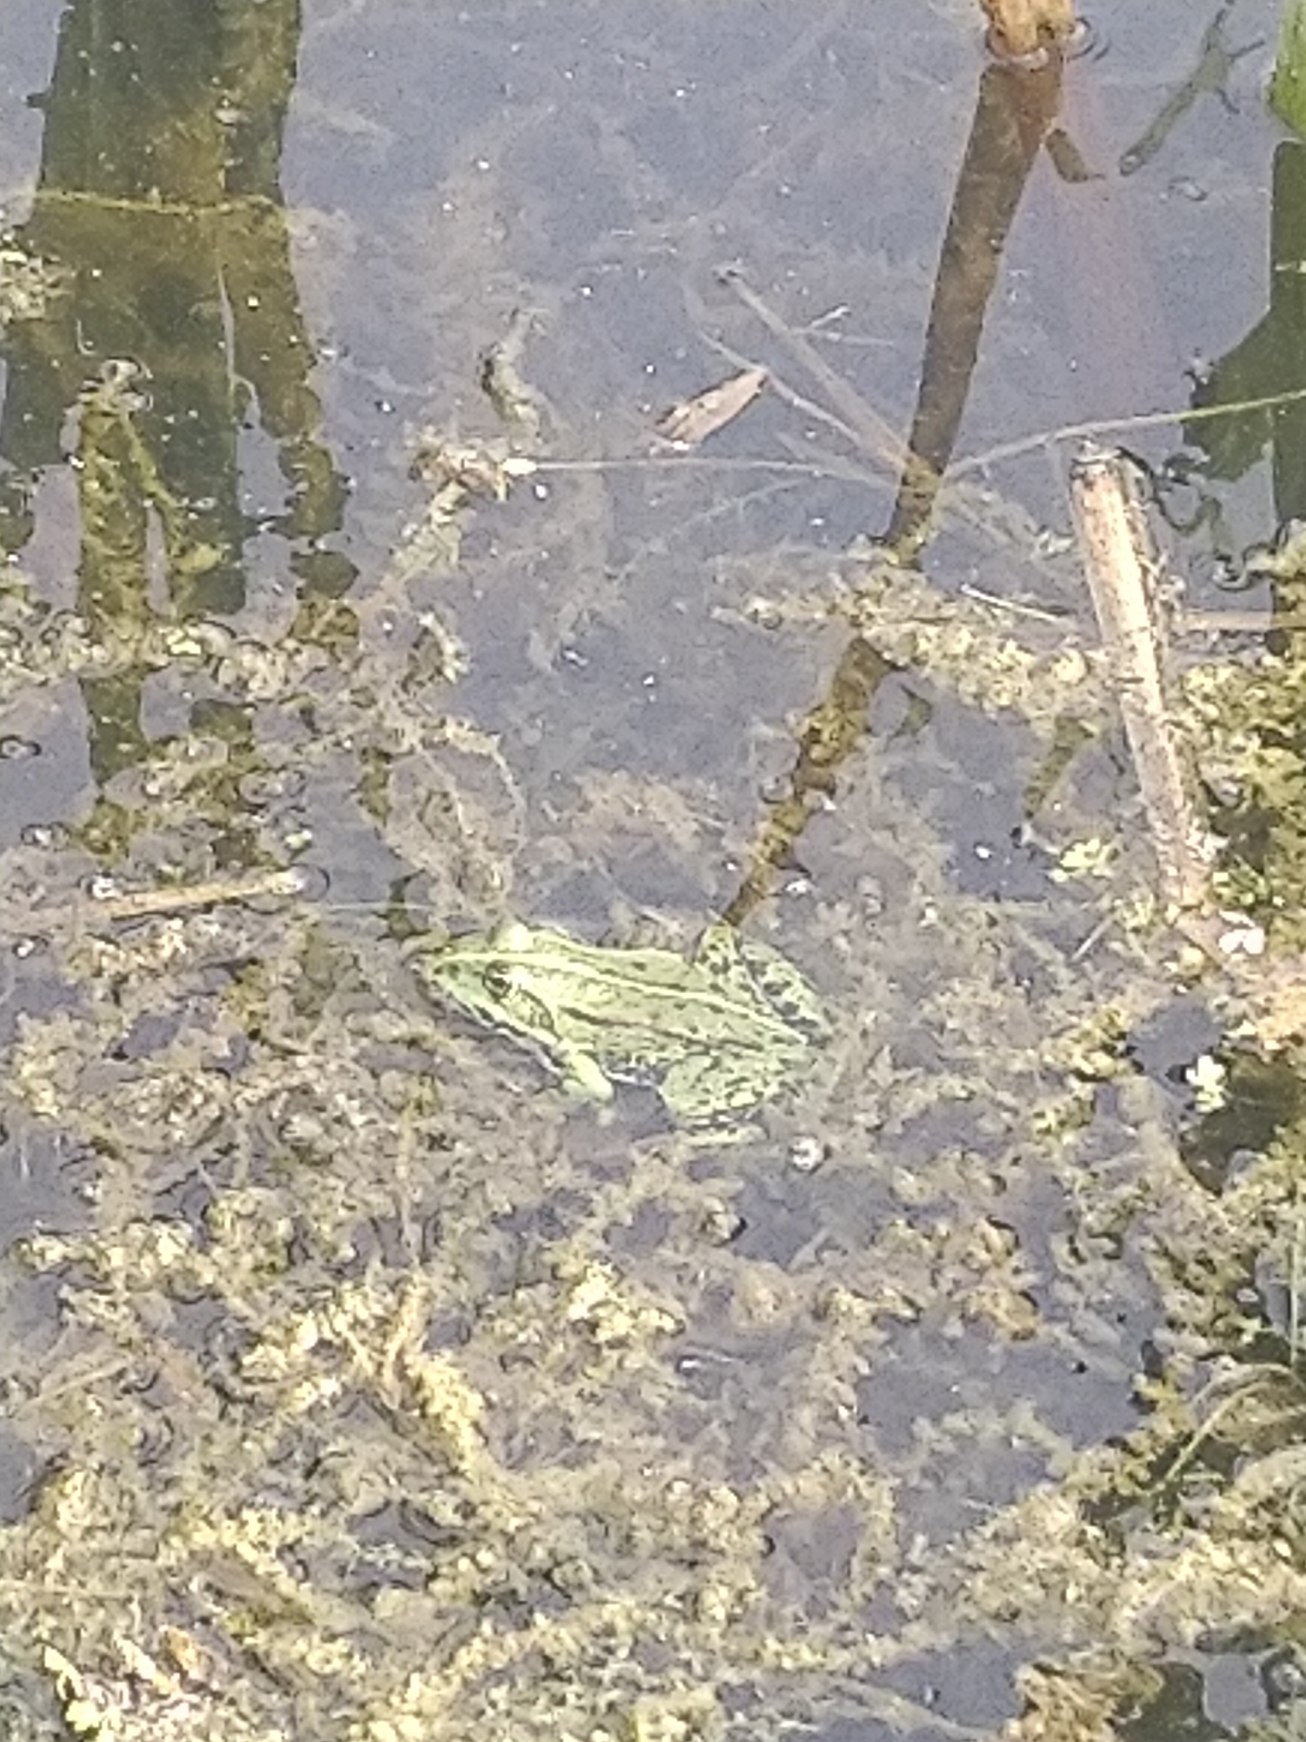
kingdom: Animalia
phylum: Chordata
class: Amphibia
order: Anura
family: Ranidae
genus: Pelophylax
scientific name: Pelophylax lessonae
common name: Grøn frø
